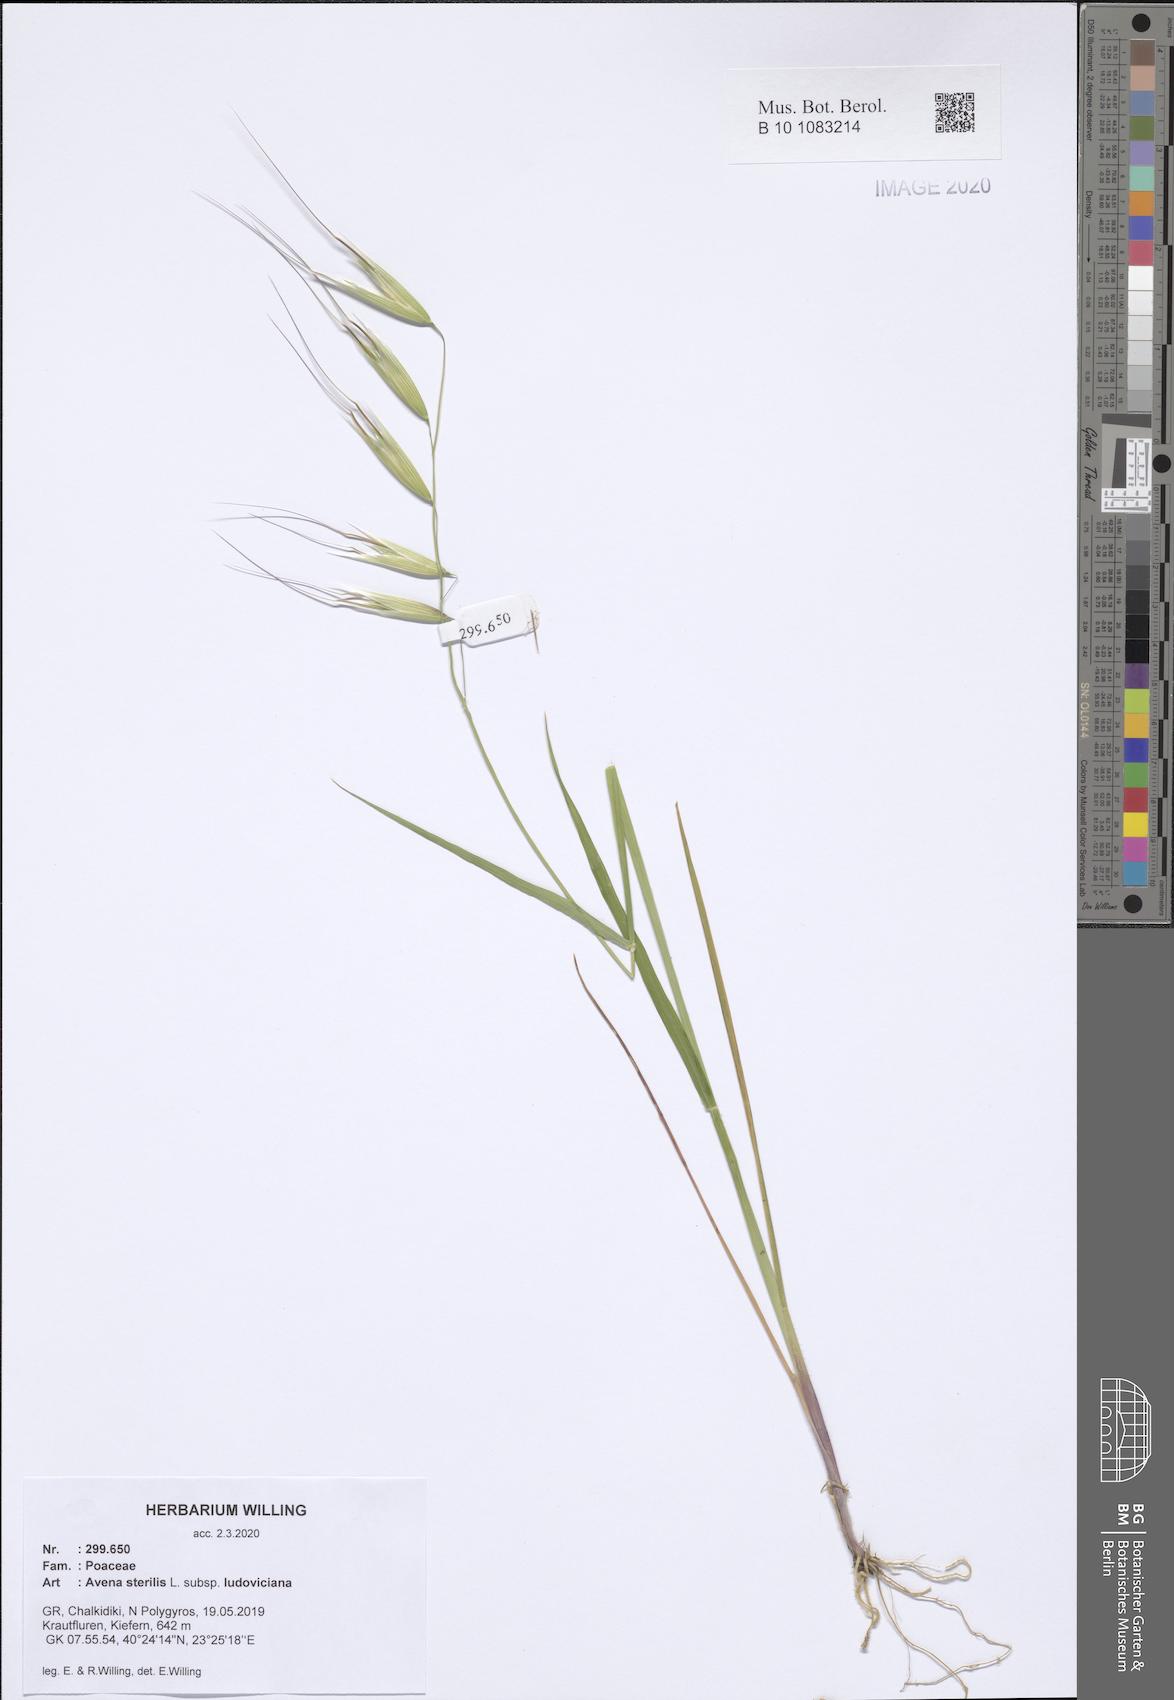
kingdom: Plantae
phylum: Tracheophyta
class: Liliopsida
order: Poales
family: Poaceae
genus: Avena
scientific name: Avena sterilis
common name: Animated oat
